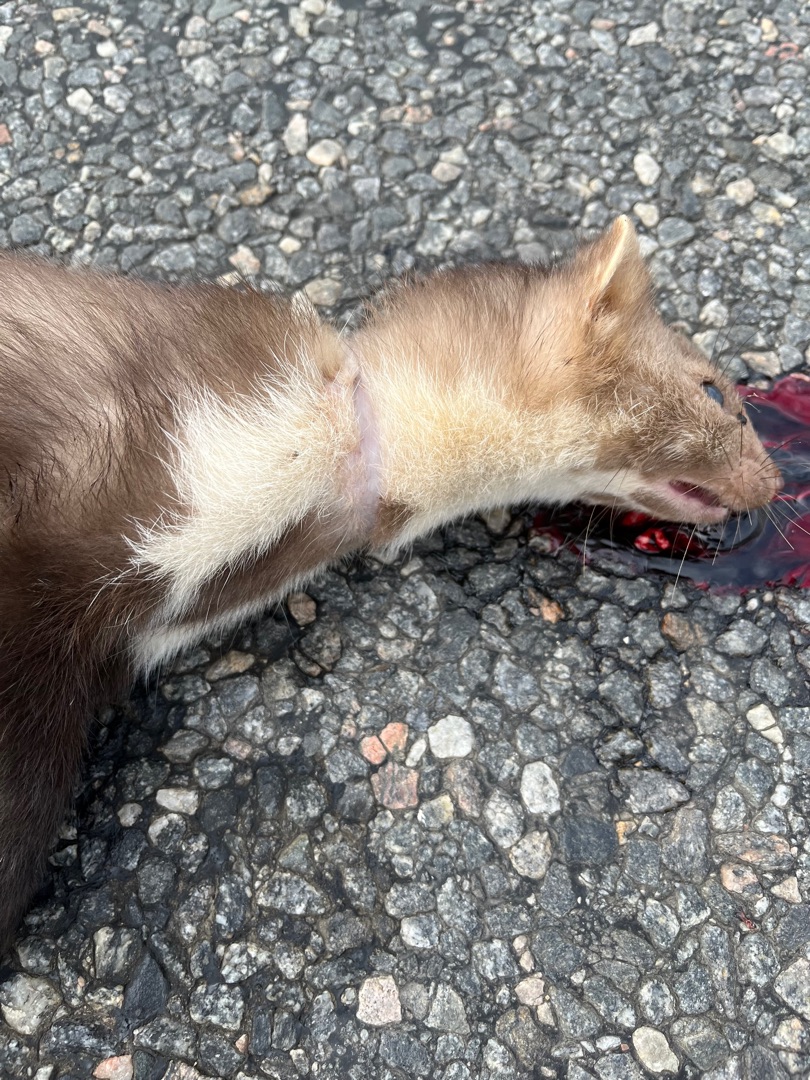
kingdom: Animalia
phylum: Chordata
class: Mammalia
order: Carnivora
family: Mustelidae
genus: Martes
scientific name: Martes foina
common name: Husmår
